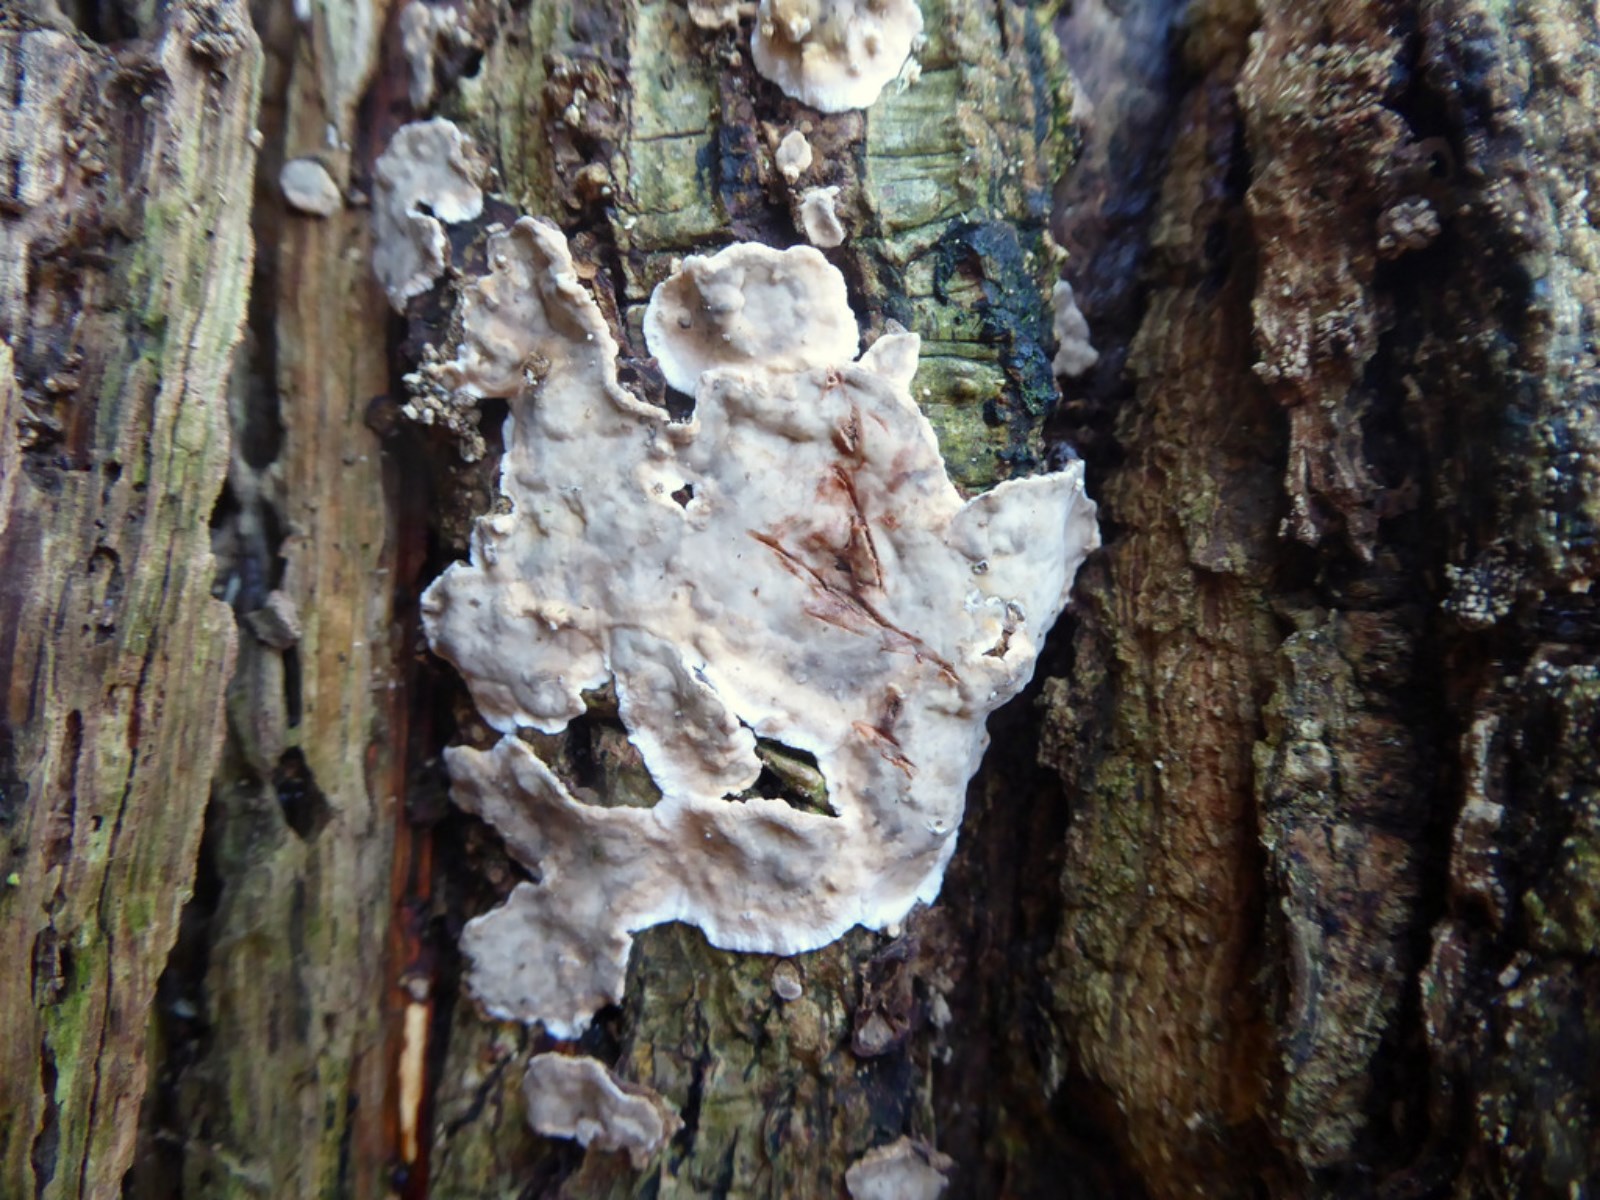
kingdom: Fungi
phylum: Basidiomycota
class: Agaricomycetes
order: Russulales
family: Stereaceae
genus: Stereum
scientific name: Stereum rugosum
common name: rynket lædersvamp
